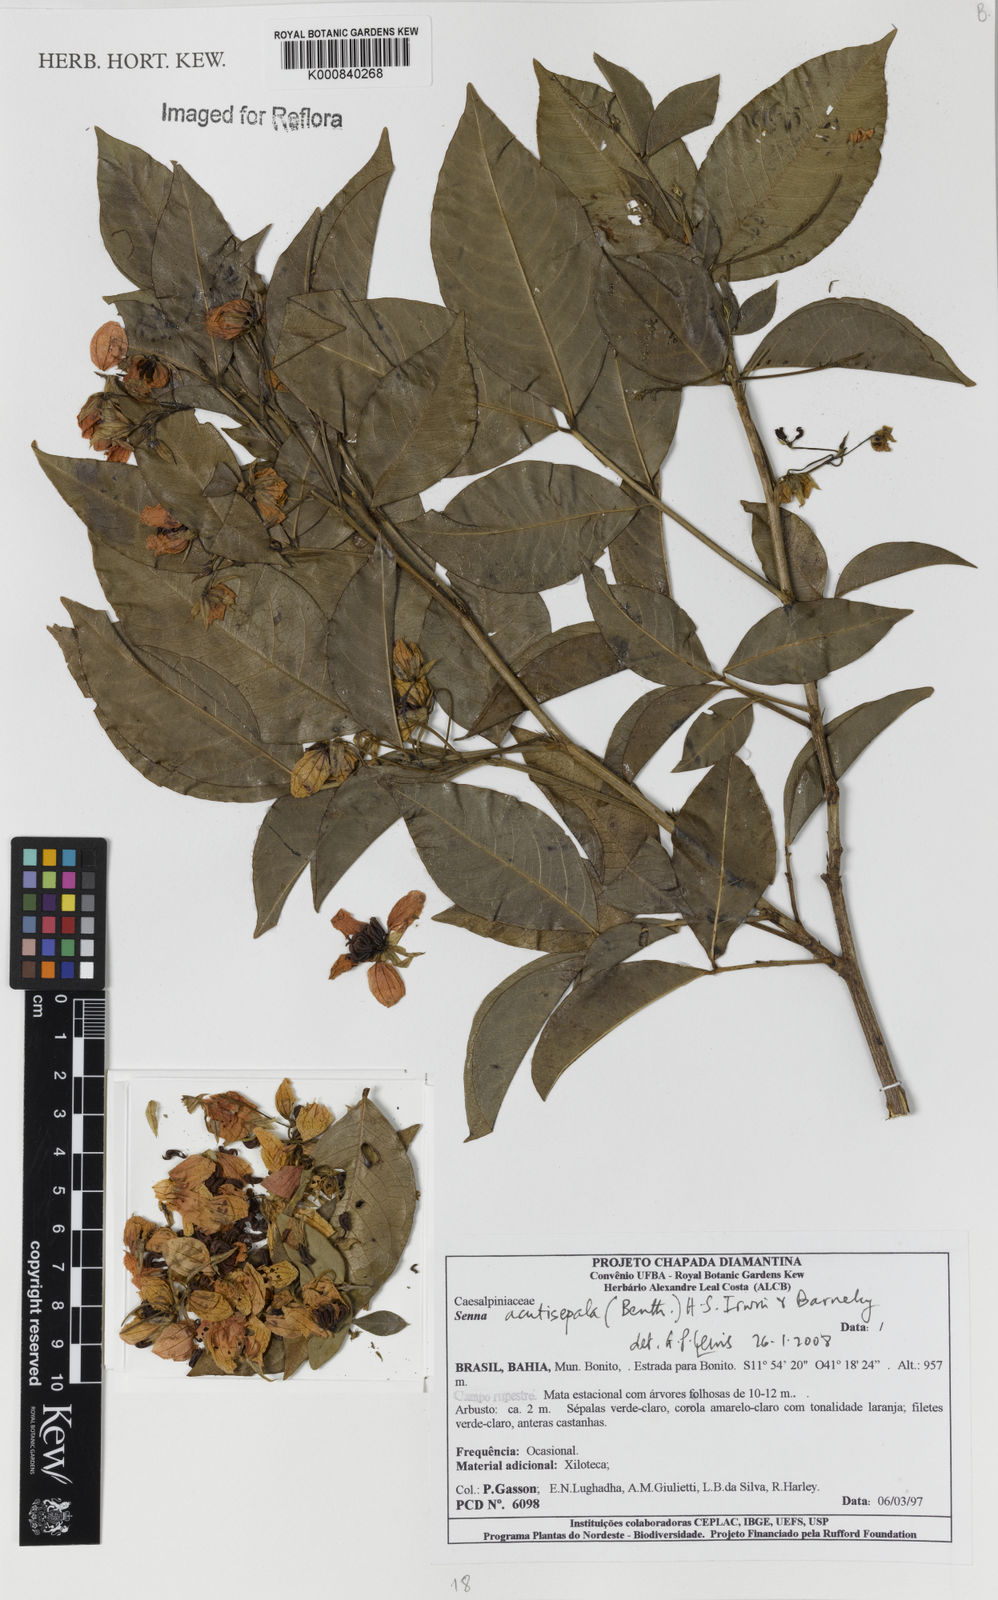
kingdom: Plantae
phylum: Tracheophyta
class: Magnoliopsida
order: Fabales
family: Fabaceae
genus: Senna
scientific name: Senna acutisepala
